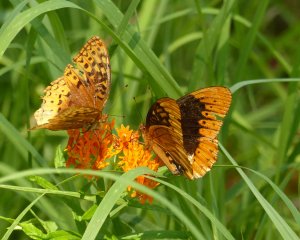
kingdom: Animalia
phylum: Arthropoda
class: Insecta
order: Lepidoptera
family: Nymphalidae
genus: Speyeria
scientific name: Speyeria diana
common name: Diana Fritillary
